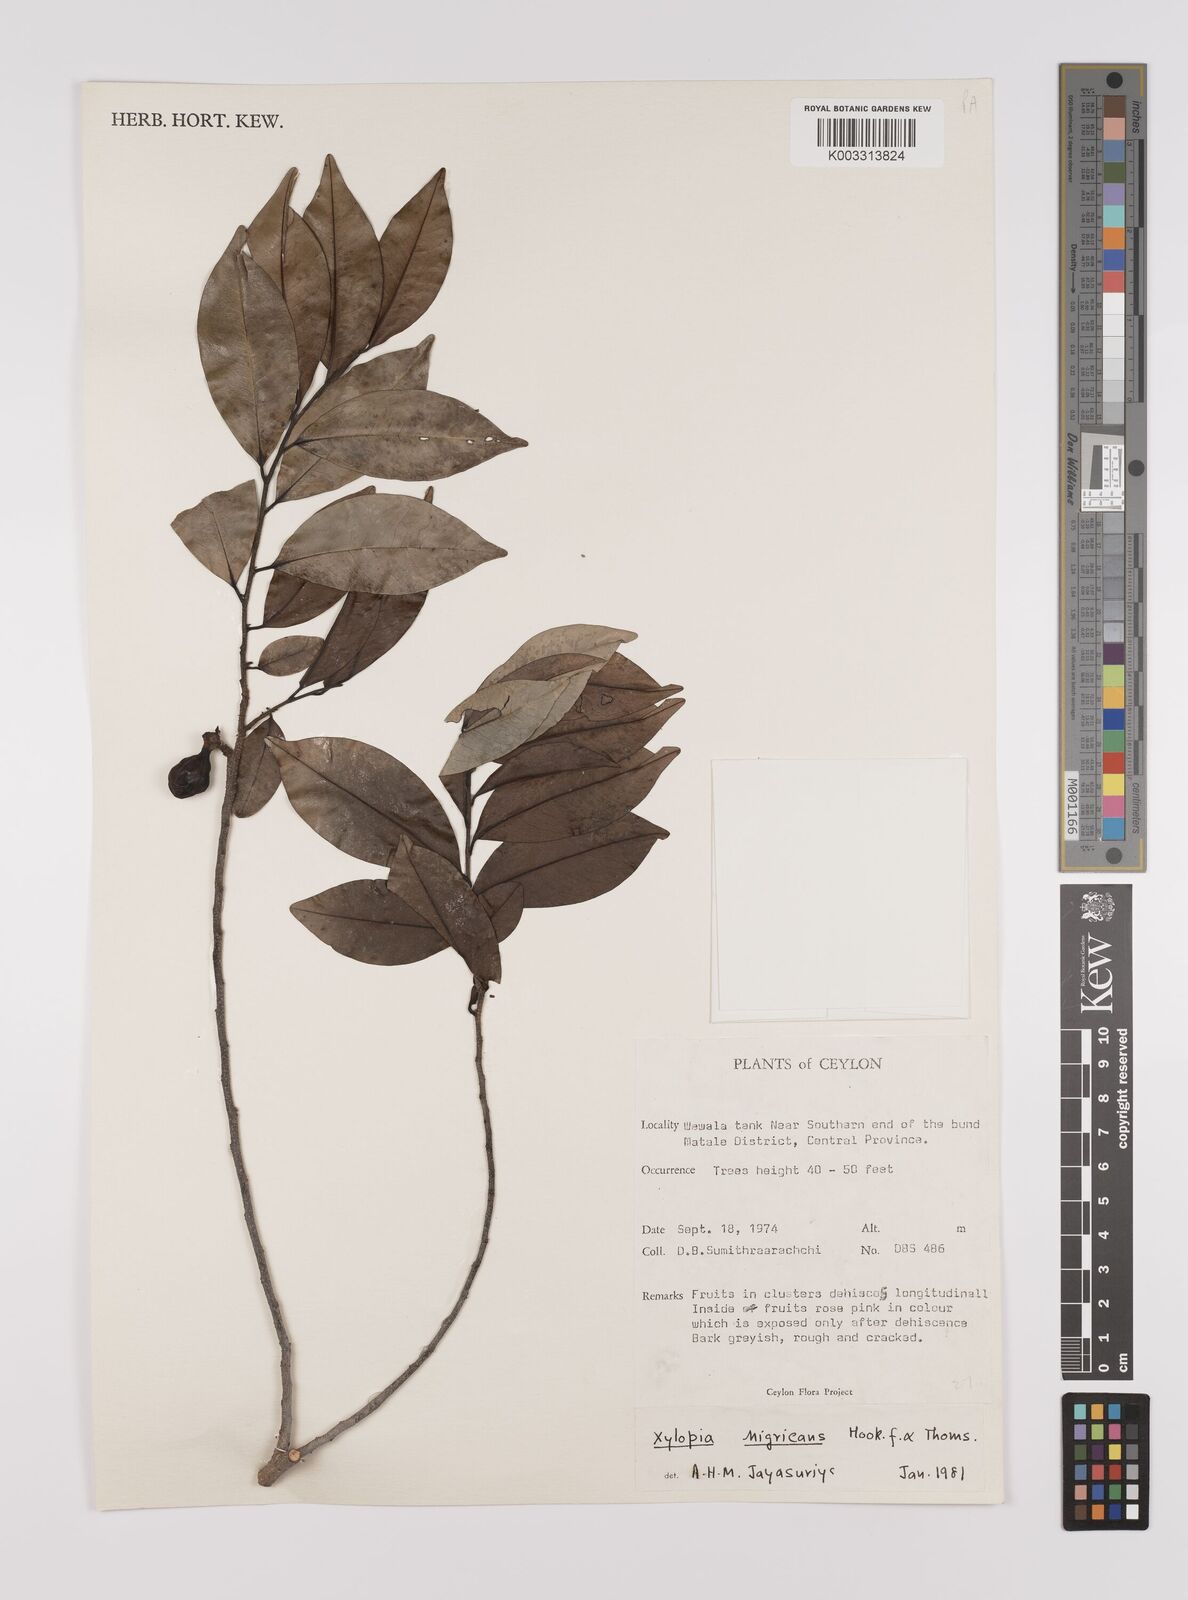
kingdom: Plantae
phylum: Tracheophyta
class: Magnoliopsida
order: Magnoliales
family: Annonaceae
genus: Xylopia
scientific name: Xylopia nigricans
